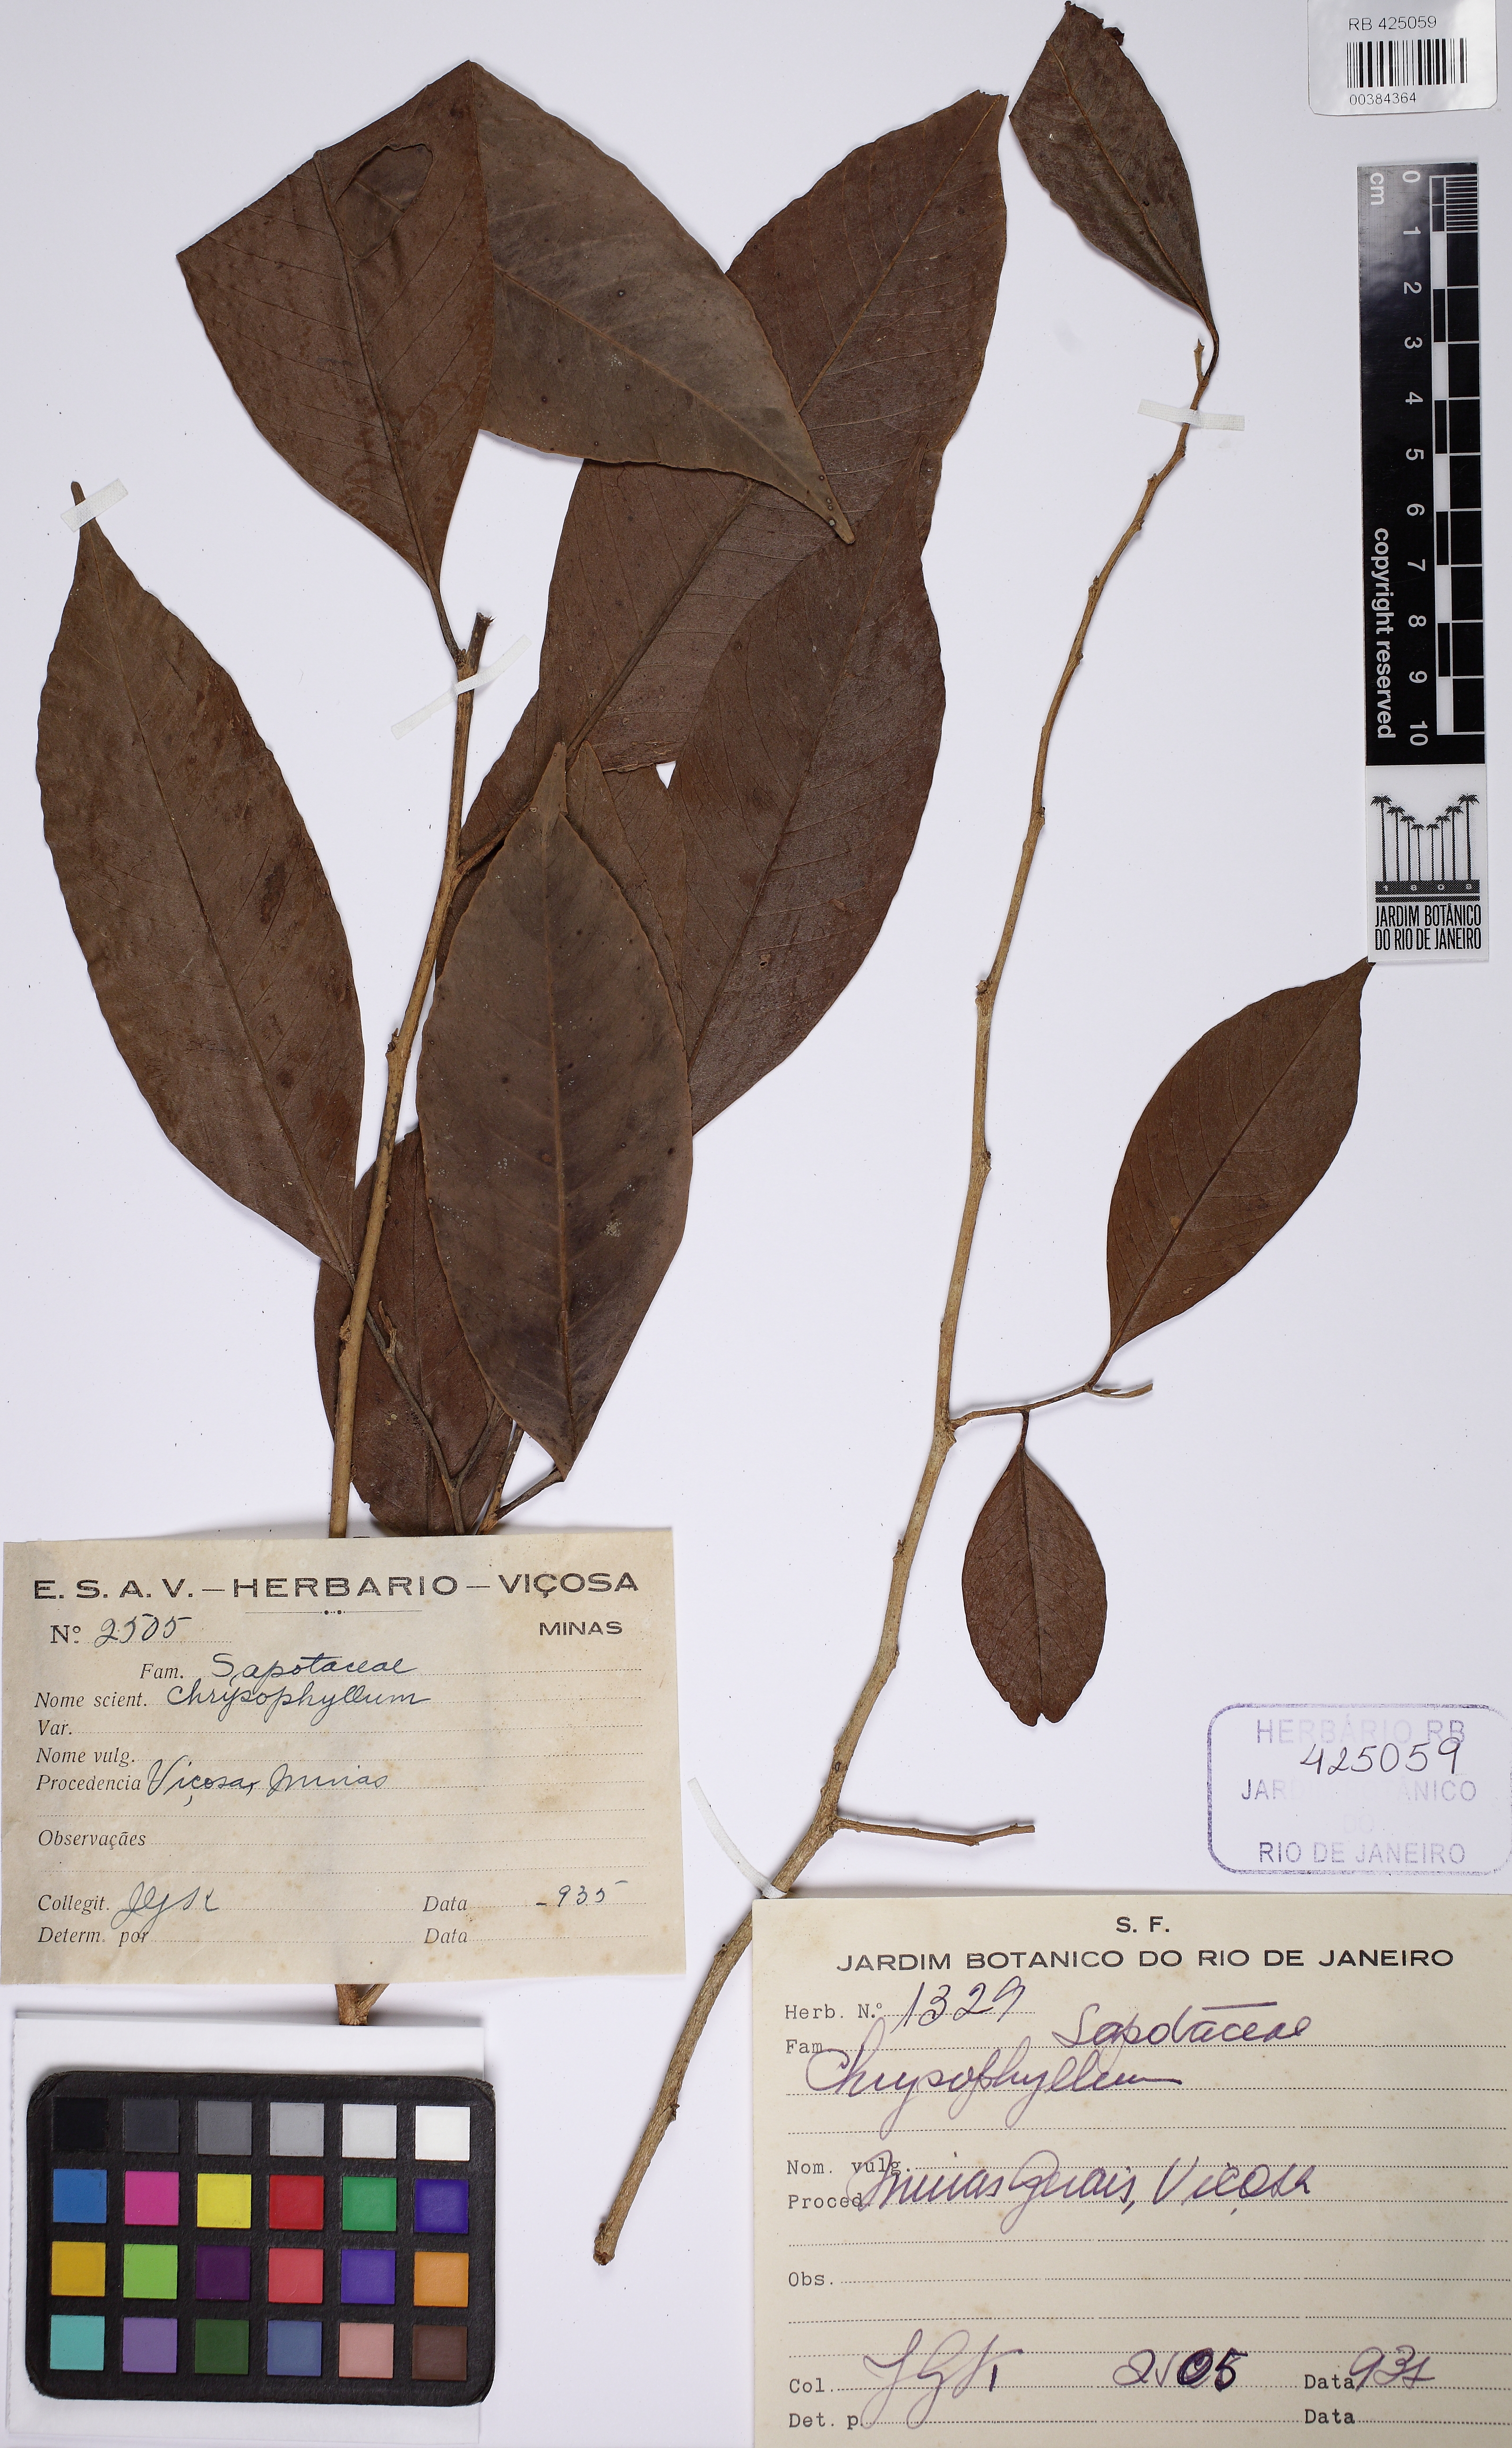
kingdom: Plantae
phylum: Tracheophyta
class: Magnoliopsida
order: Ericales
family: Sapotaceae
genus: Chrysophyllum
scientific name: Chrysophyllum
